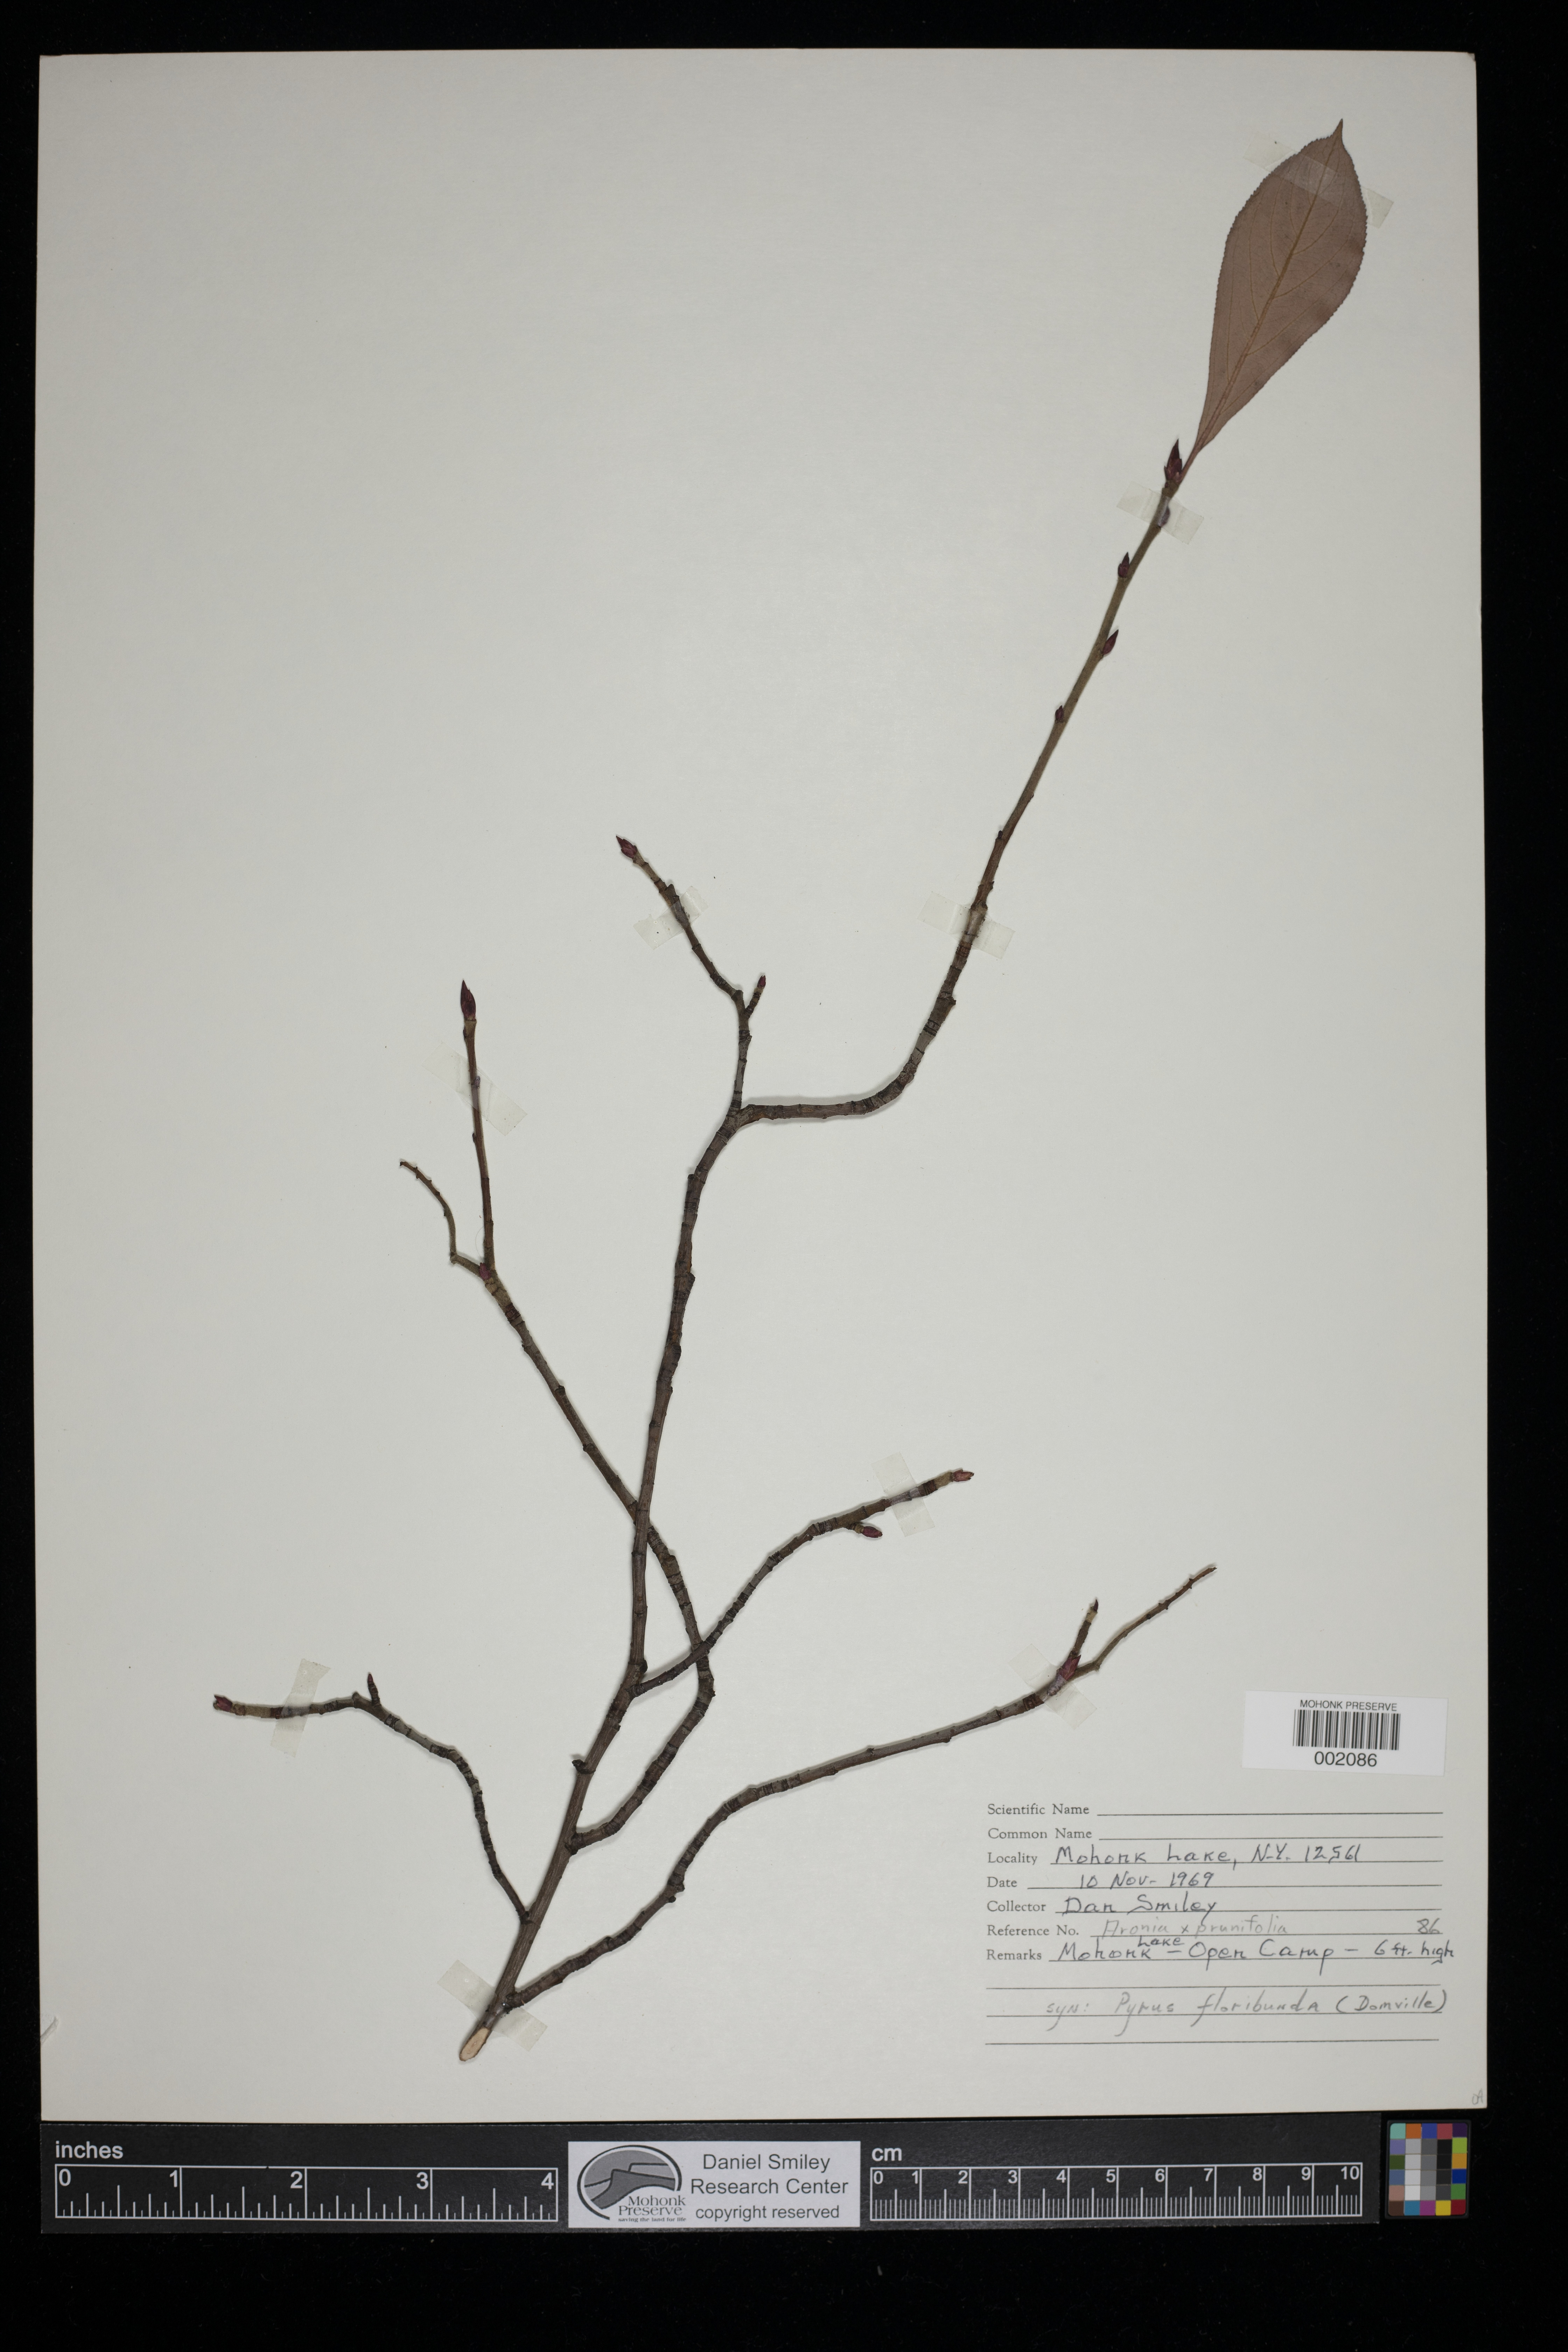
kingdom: Plantae
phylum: Tracheophyta
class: Magnoliopsida
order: Rosales
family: Rosaceae
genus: Aronia
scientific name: Aronia prunifolia
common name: Purple chokeberry
